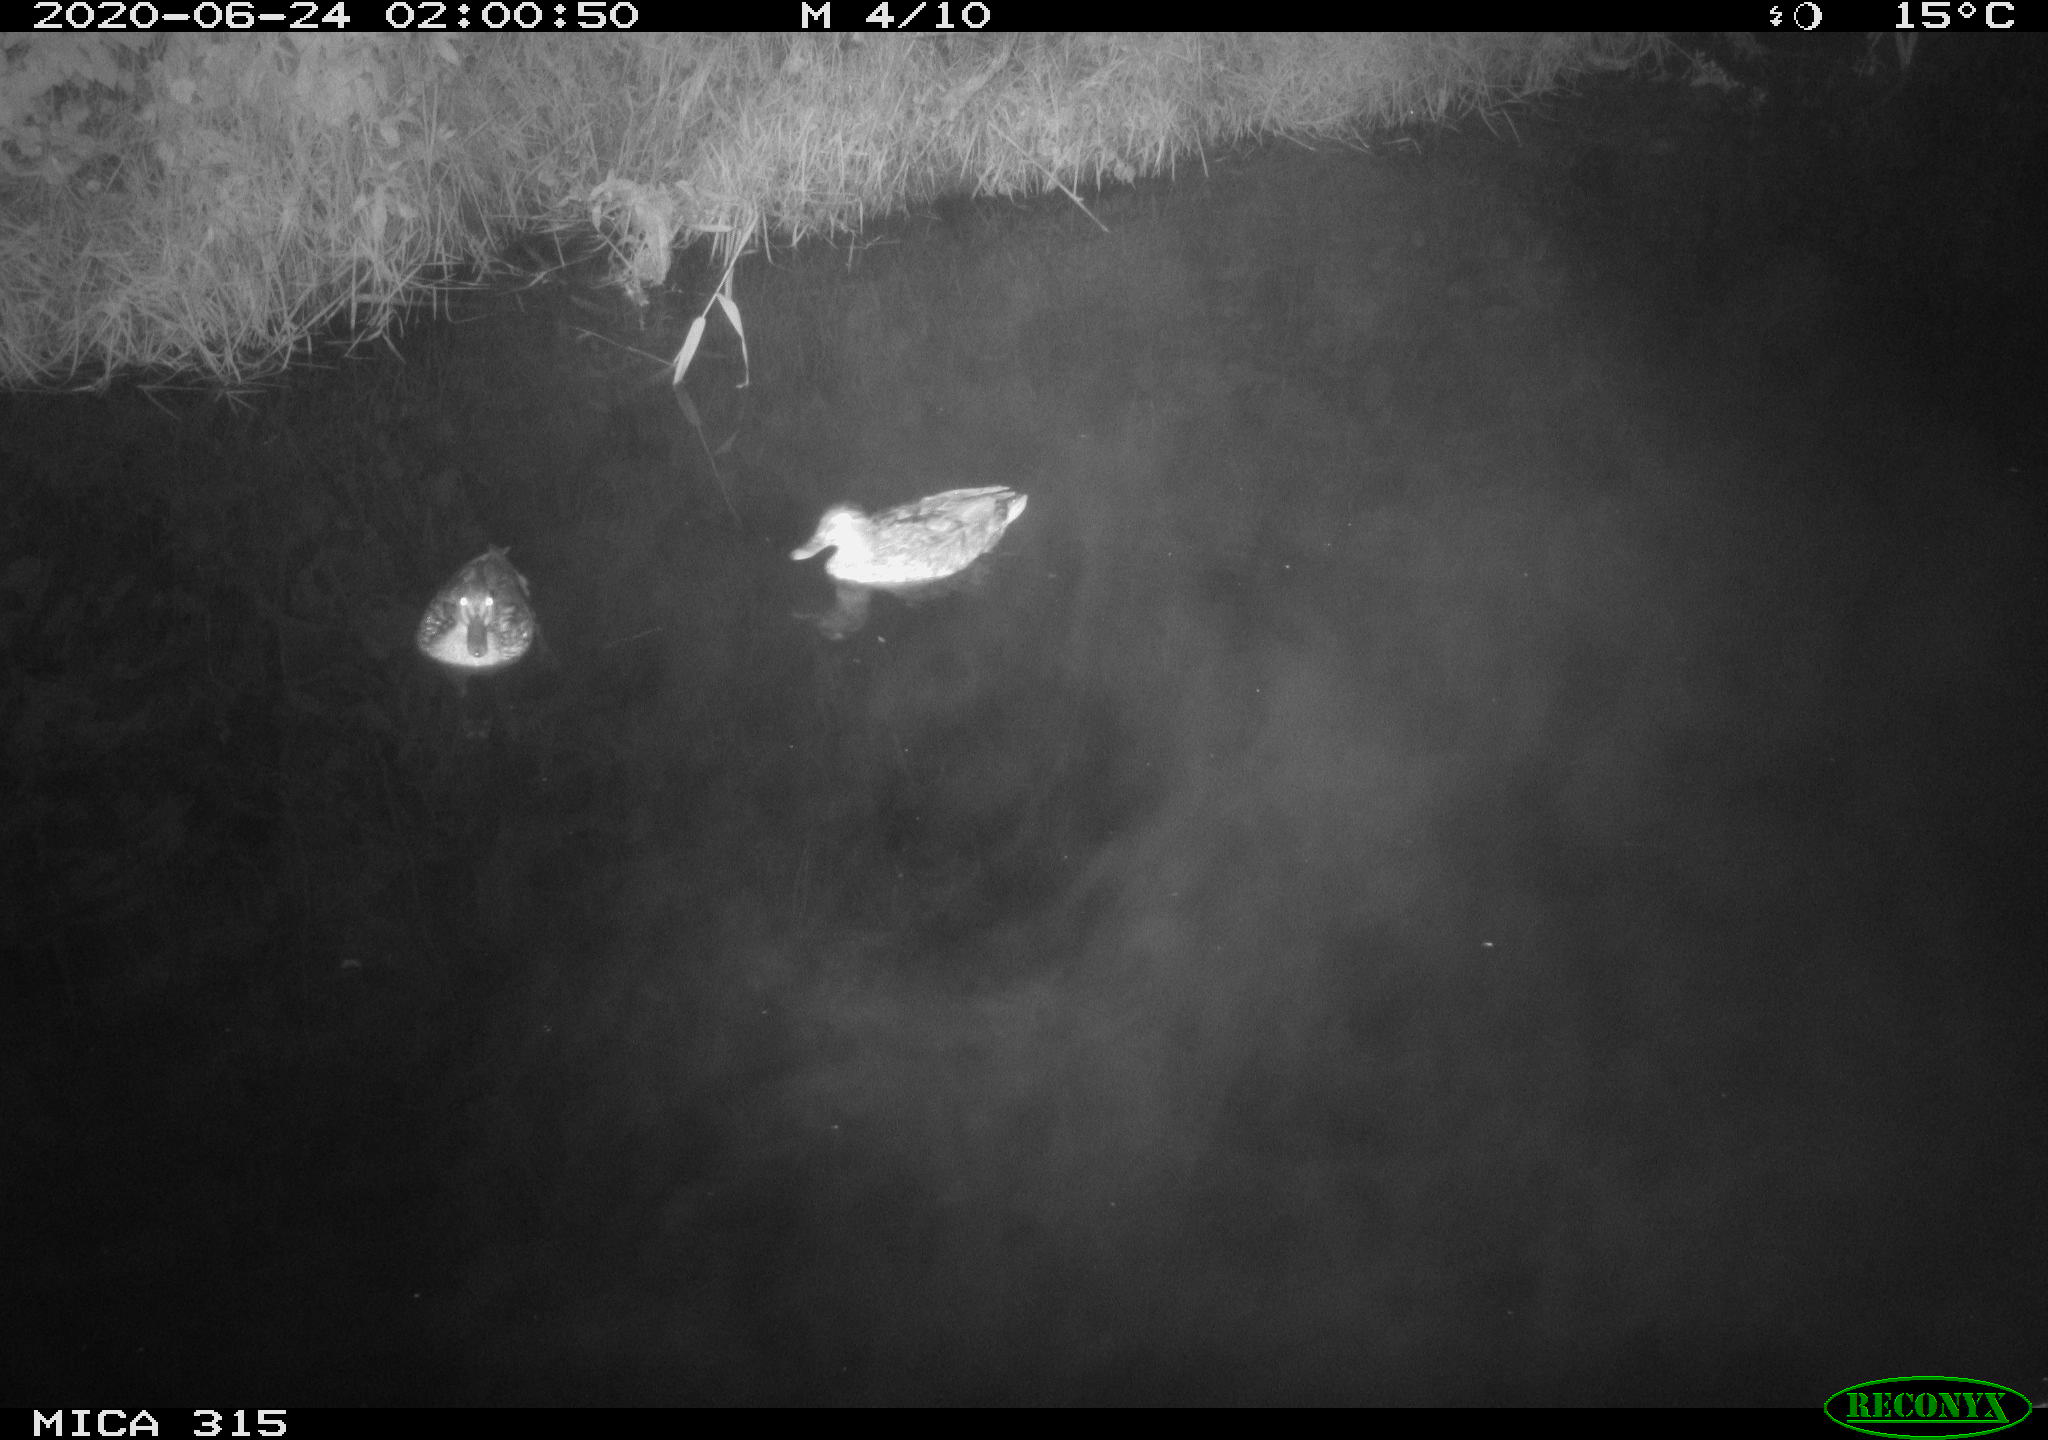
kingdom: Animalia
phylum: Chordata
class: Aves
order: Anseriformes
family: Anatidae
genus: Anas
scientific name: Anas platyrhynchos
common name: Mallard
